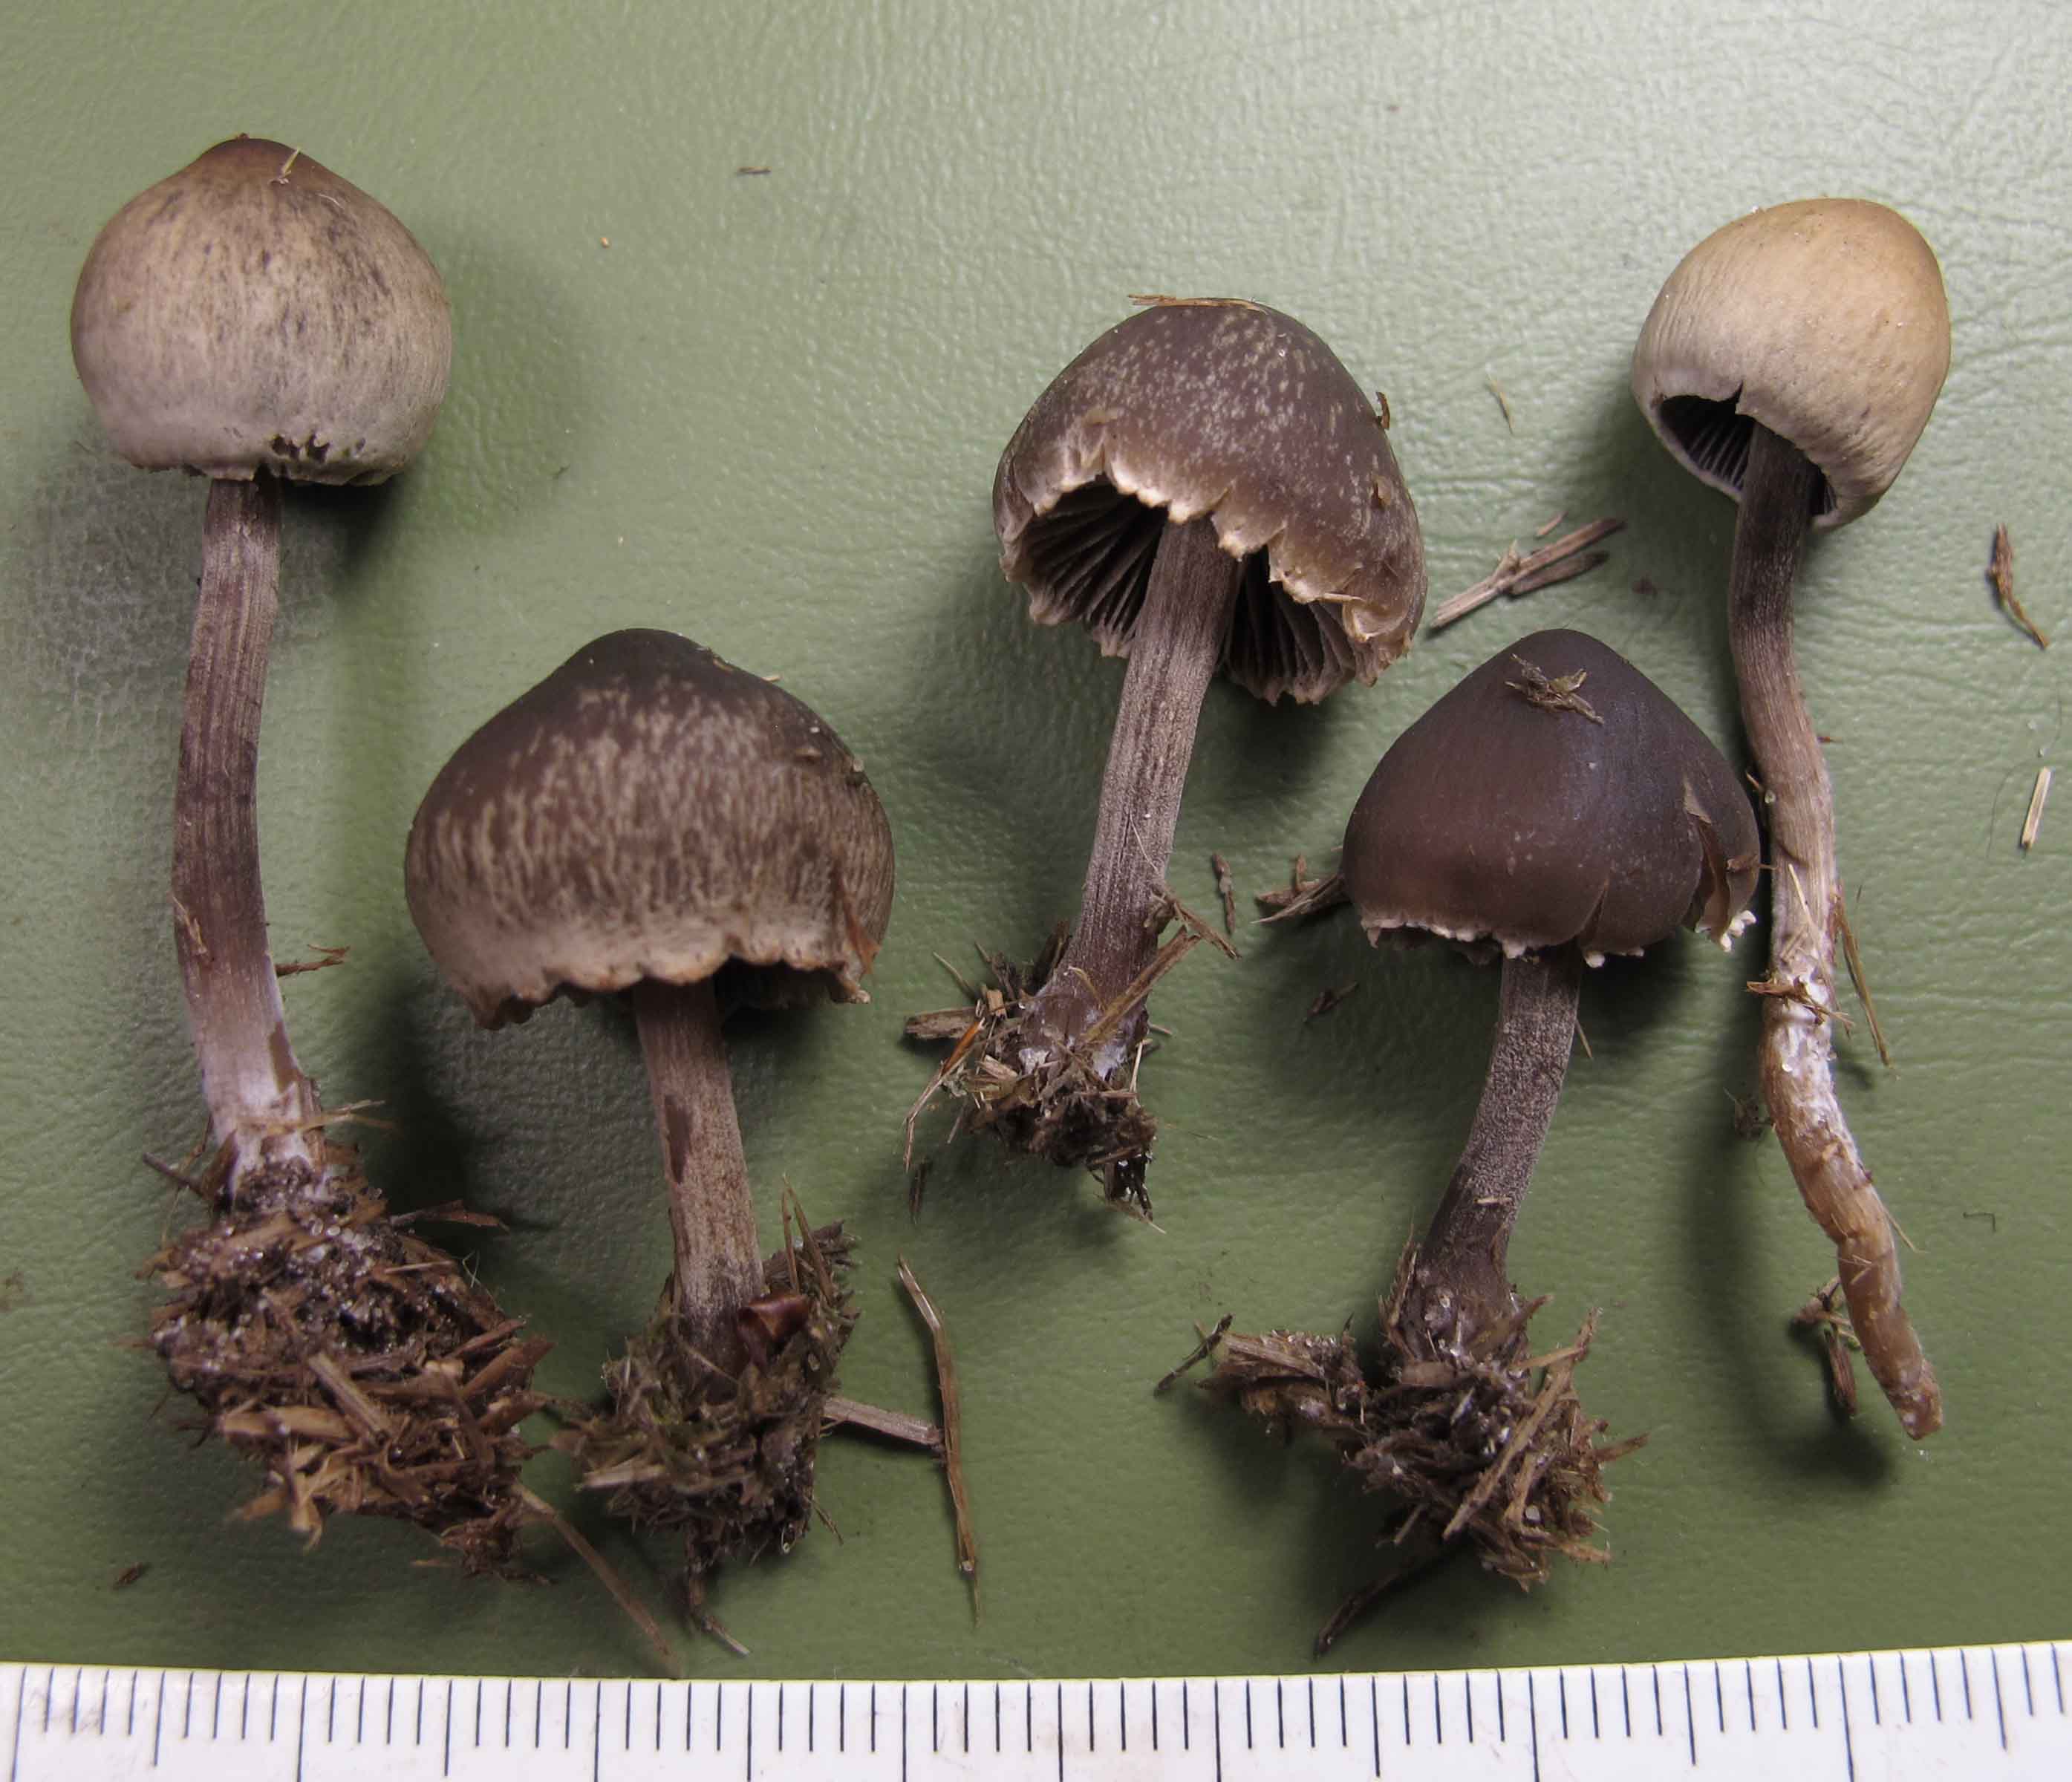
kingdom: Fungi
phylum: Basidiomycota
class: Agaricomycetes
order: Agaricales
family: Bolbitiaceae
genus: Panaeolus
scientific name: Panaeolus papilionaceus
